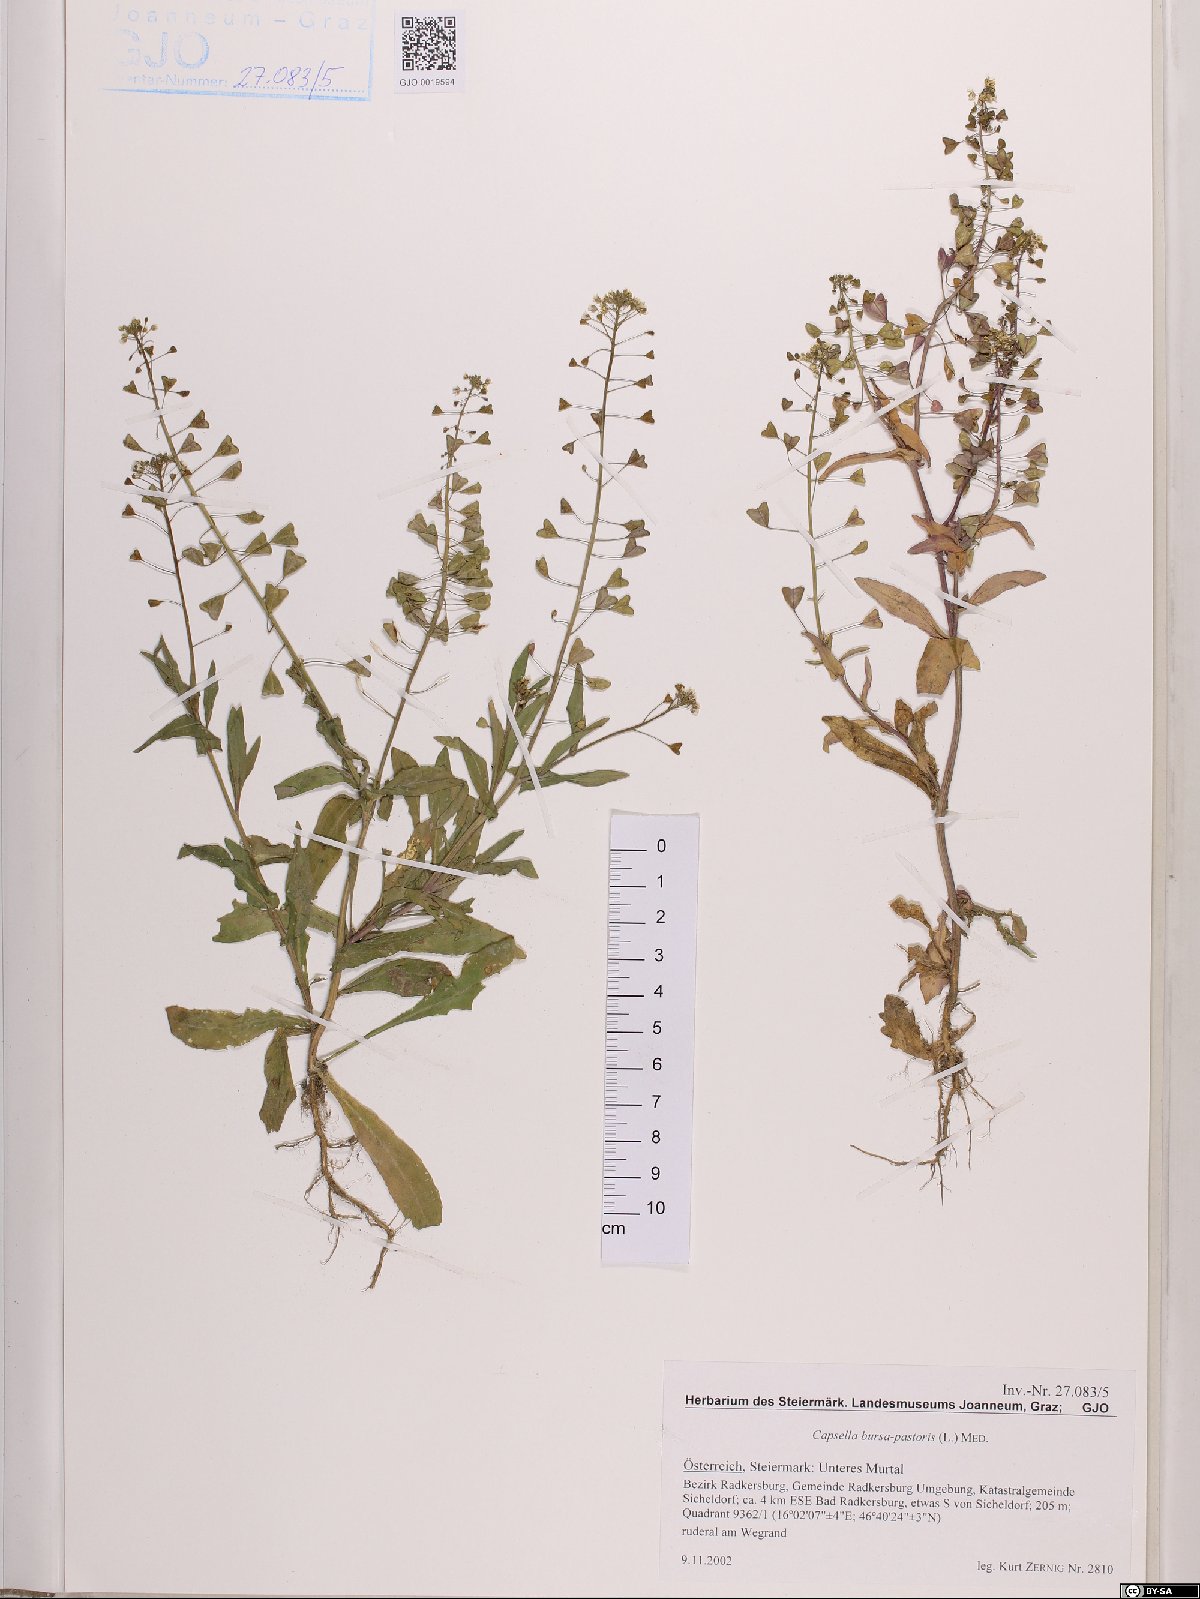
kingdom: Plantae
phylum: Tracheophyta
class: Magnoliopsida
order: Brassicales
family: Brassicaceae
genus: Capsella
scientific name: Capsella bursa-pastoris
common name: Shepherd's purse
